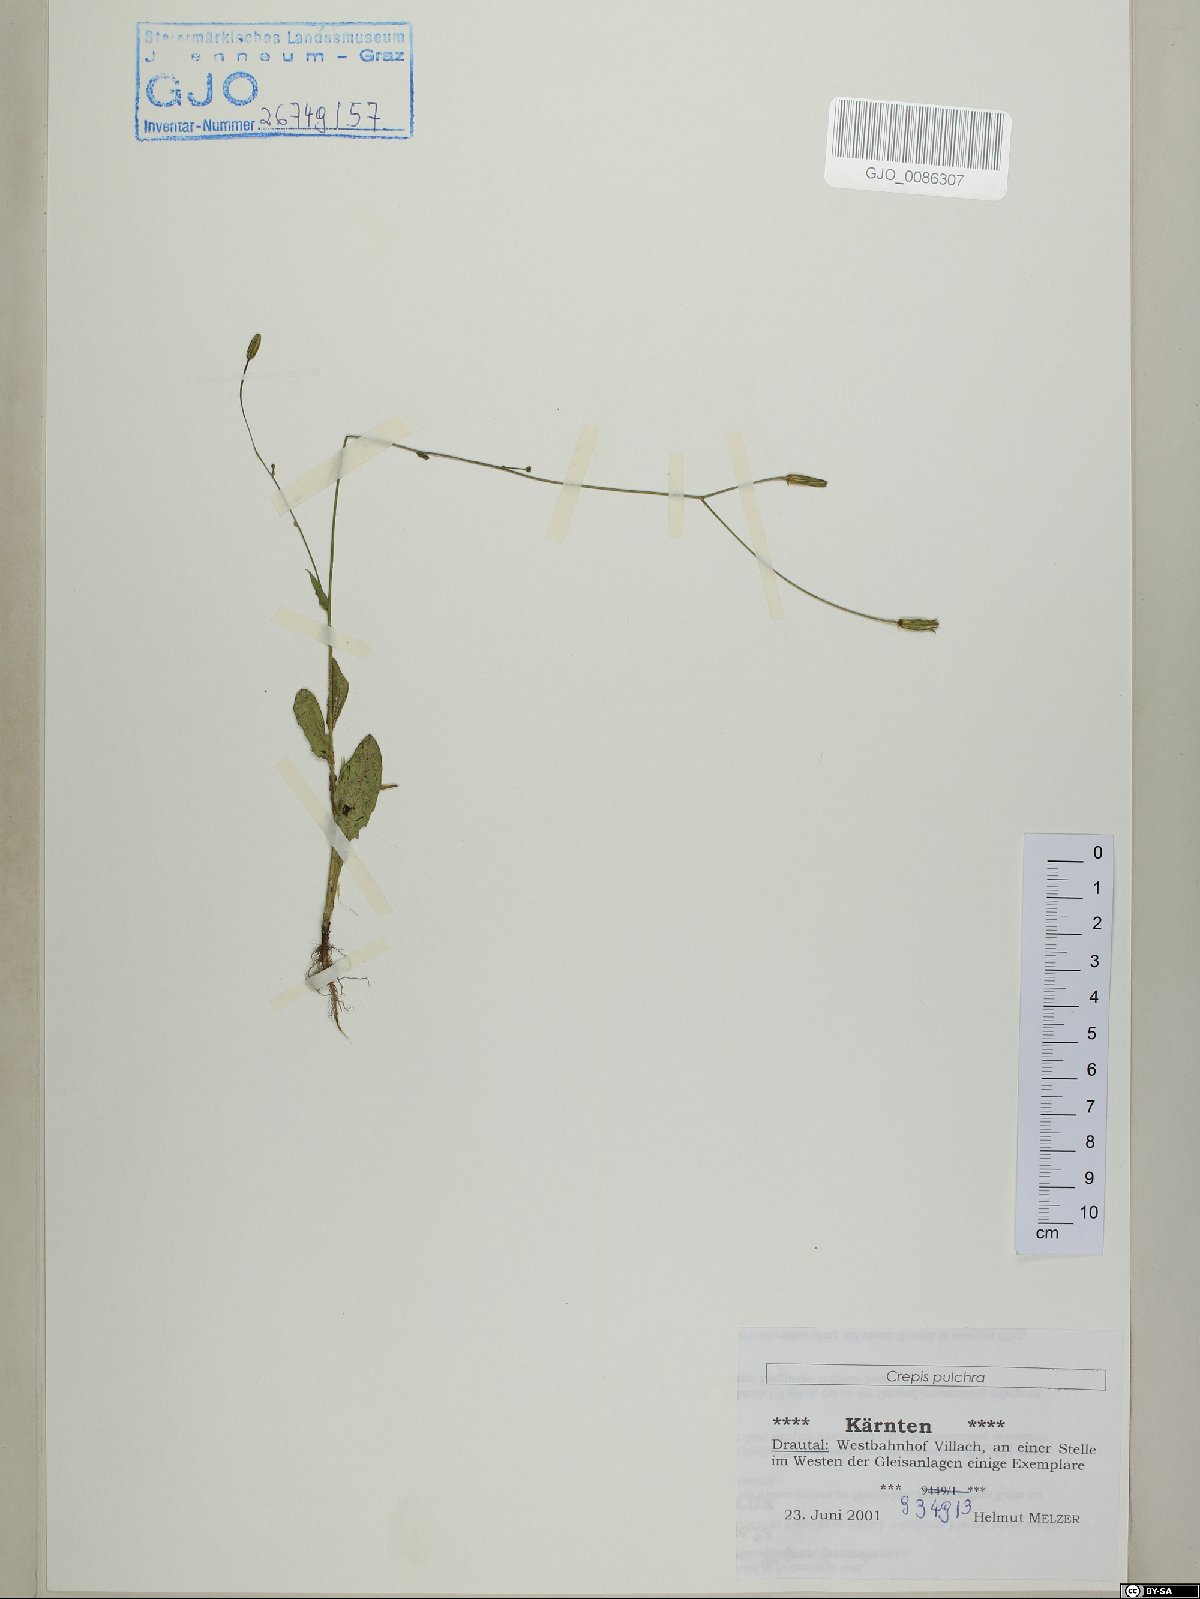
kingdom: Plantae
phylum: Tracheophyta
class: Magnoliopsida
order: Asterales
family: Asteraceae
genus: Crepis
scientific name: Crepis pulchra
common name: Hawk's-beard
